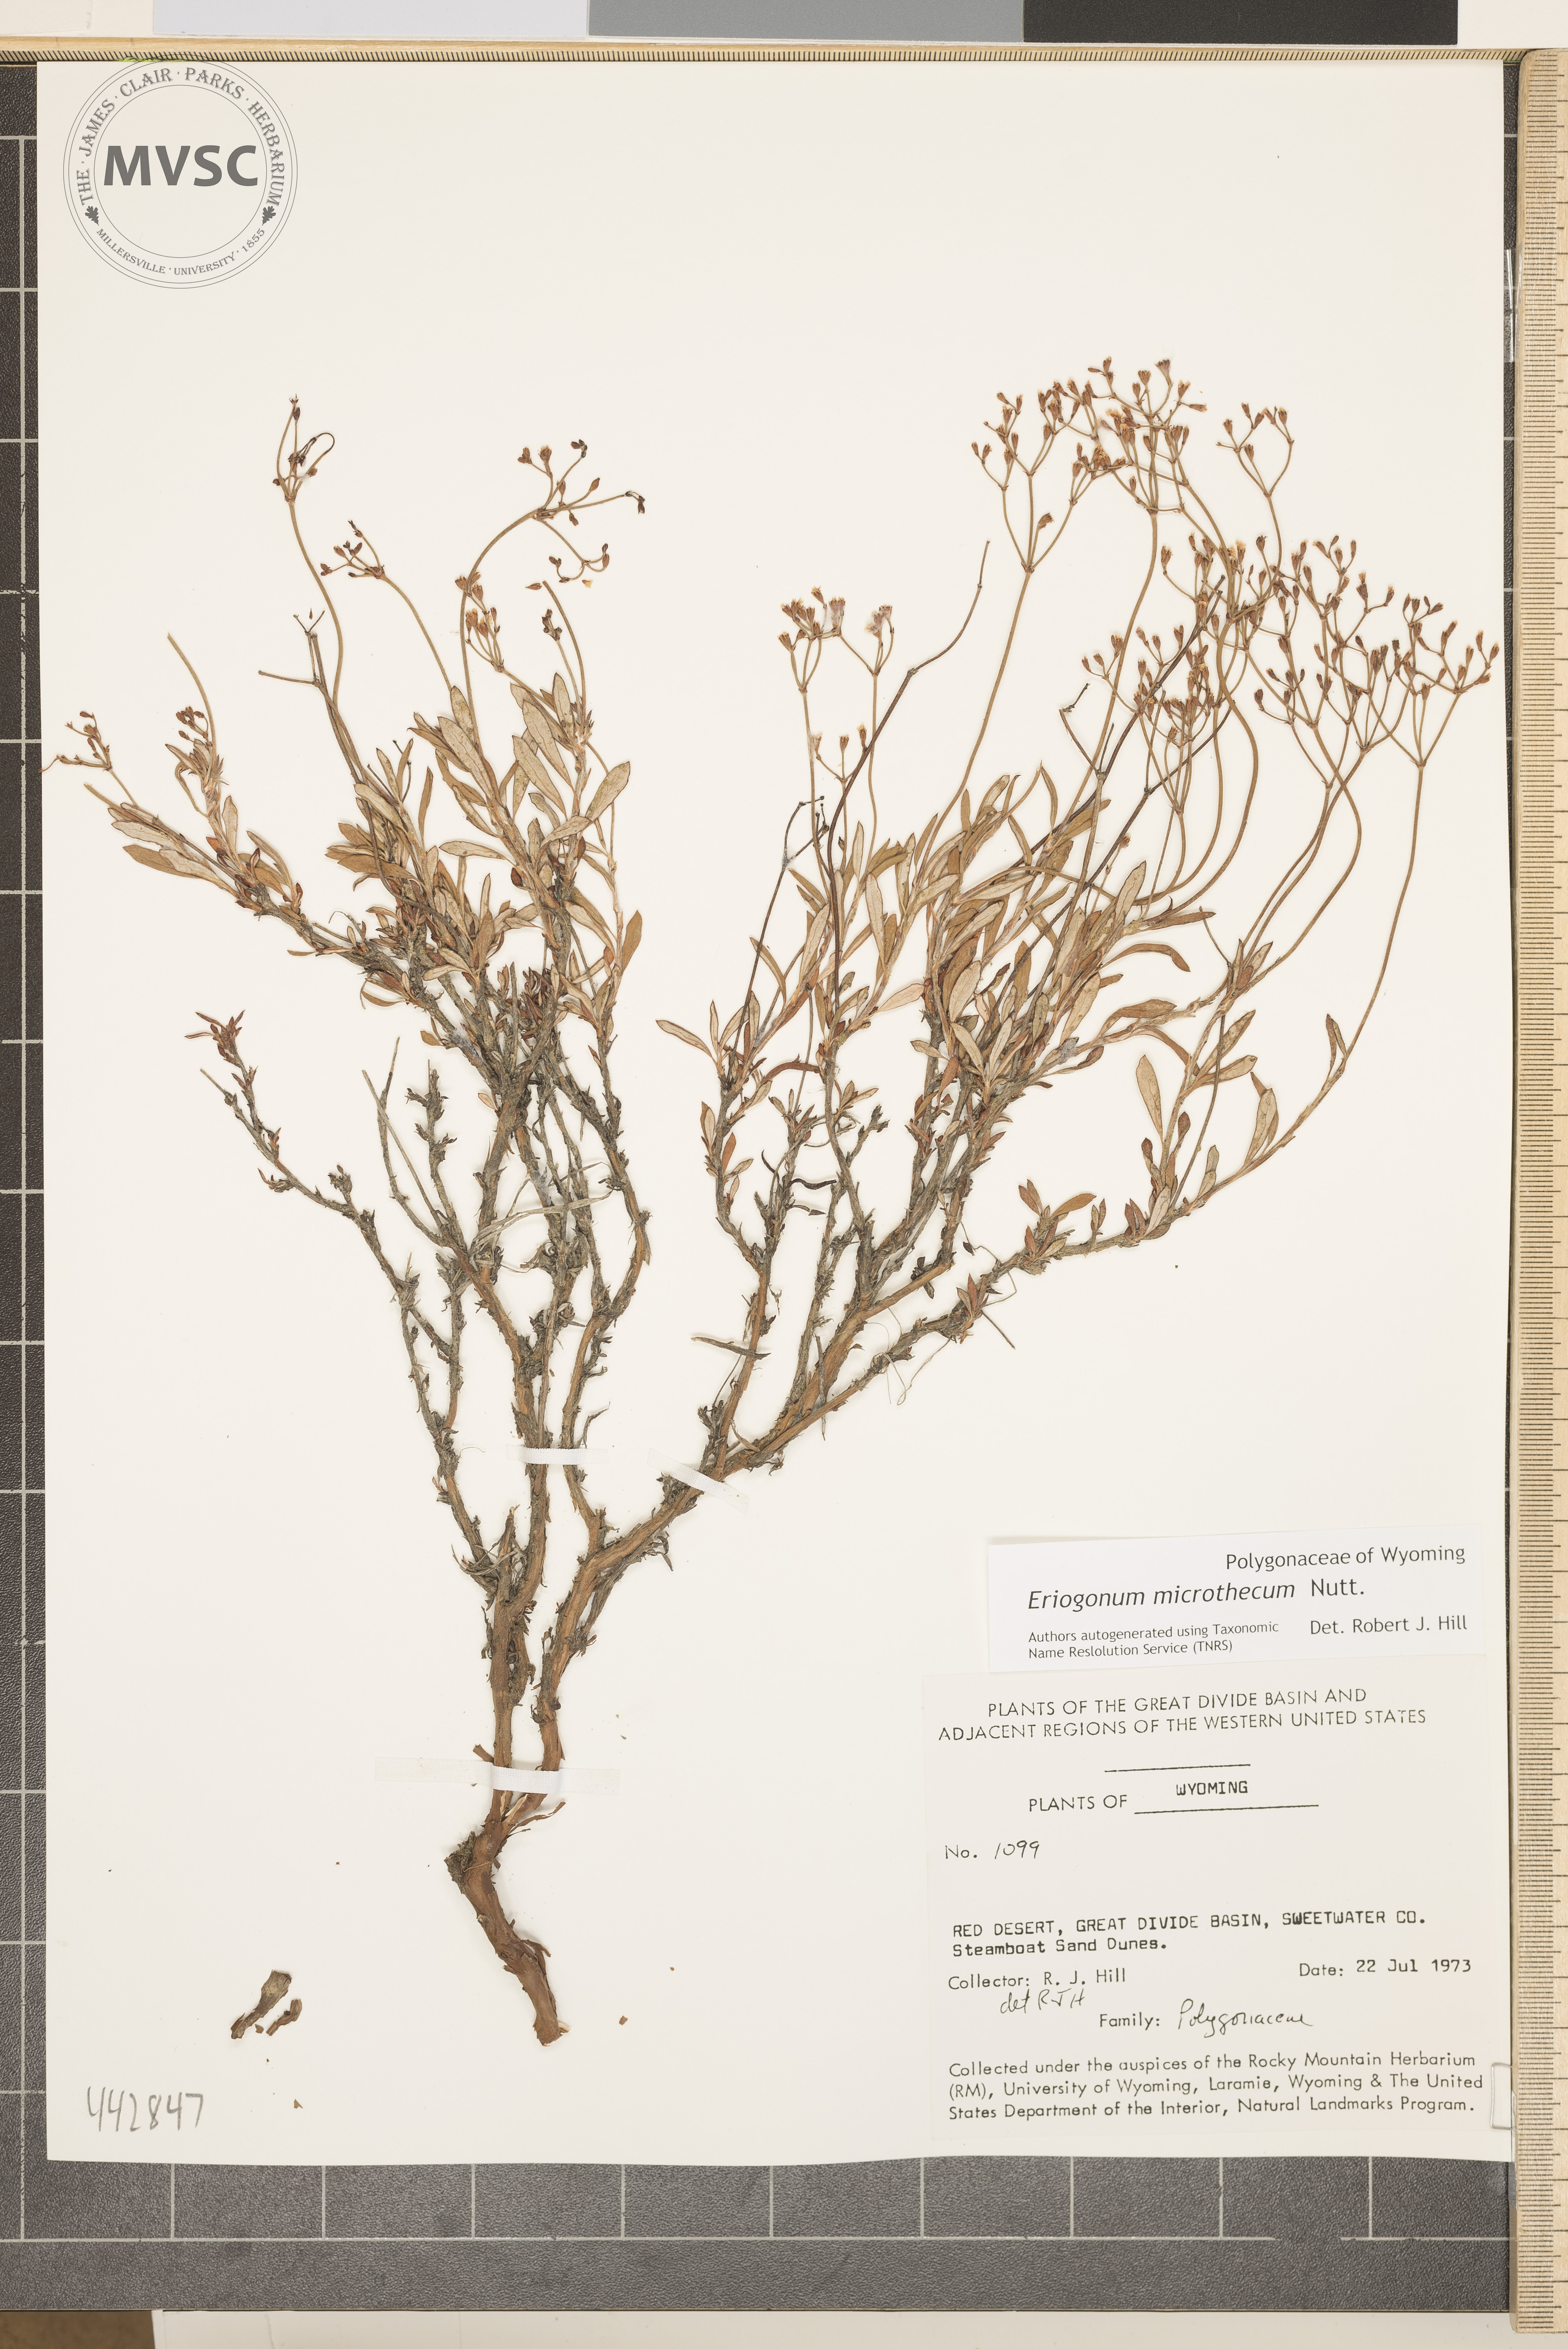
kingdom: Plantae
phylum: Tracheophyta
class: Magnoliopsida
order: Caryophyllales
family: Polygonaceae
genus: Eriogonum
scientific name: Eriogonum microtheca
